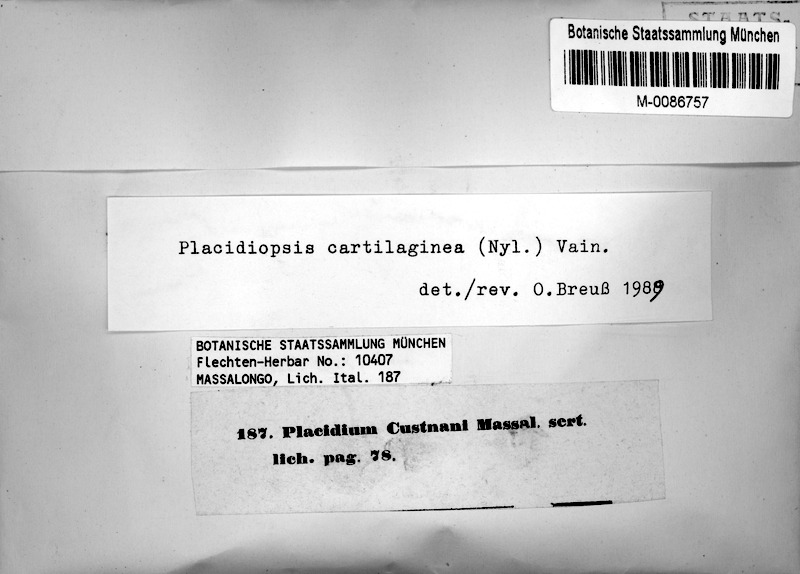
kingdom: Fungi
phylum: Ascomycota
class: Eurotiomycetes
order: Verrucariales
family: Verrucariaceae
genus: Placidiopsis
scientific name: Placidiopsis custnani
